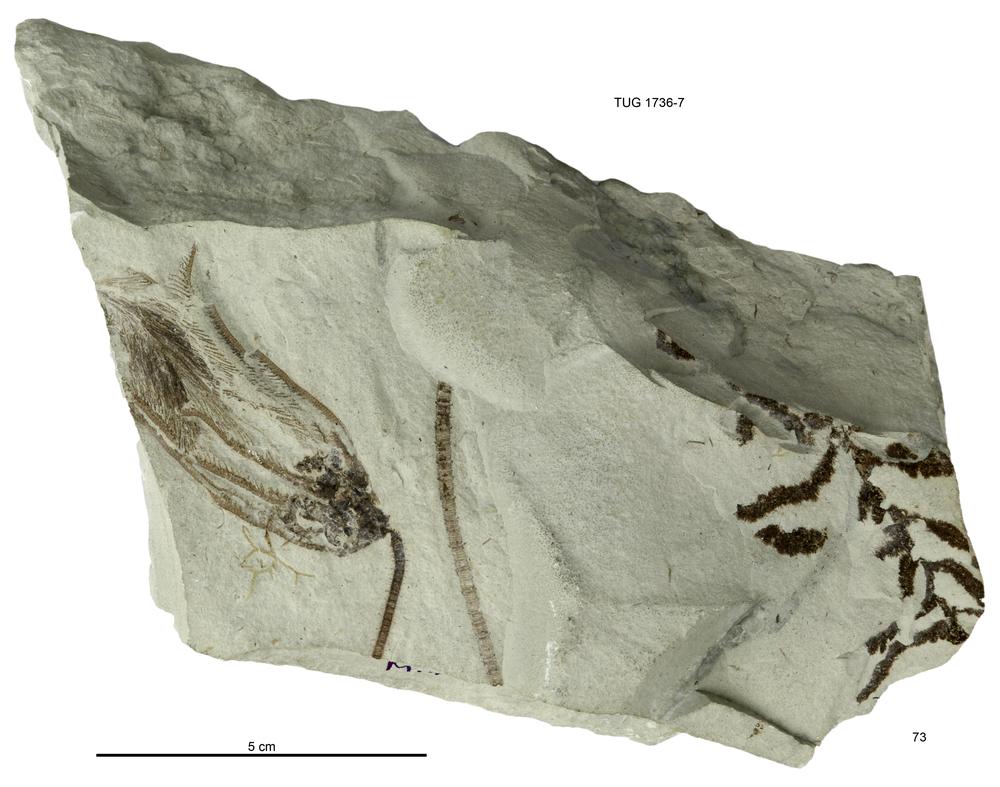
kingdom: Animalia
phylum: Echinodermata
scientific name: Echinodermata
